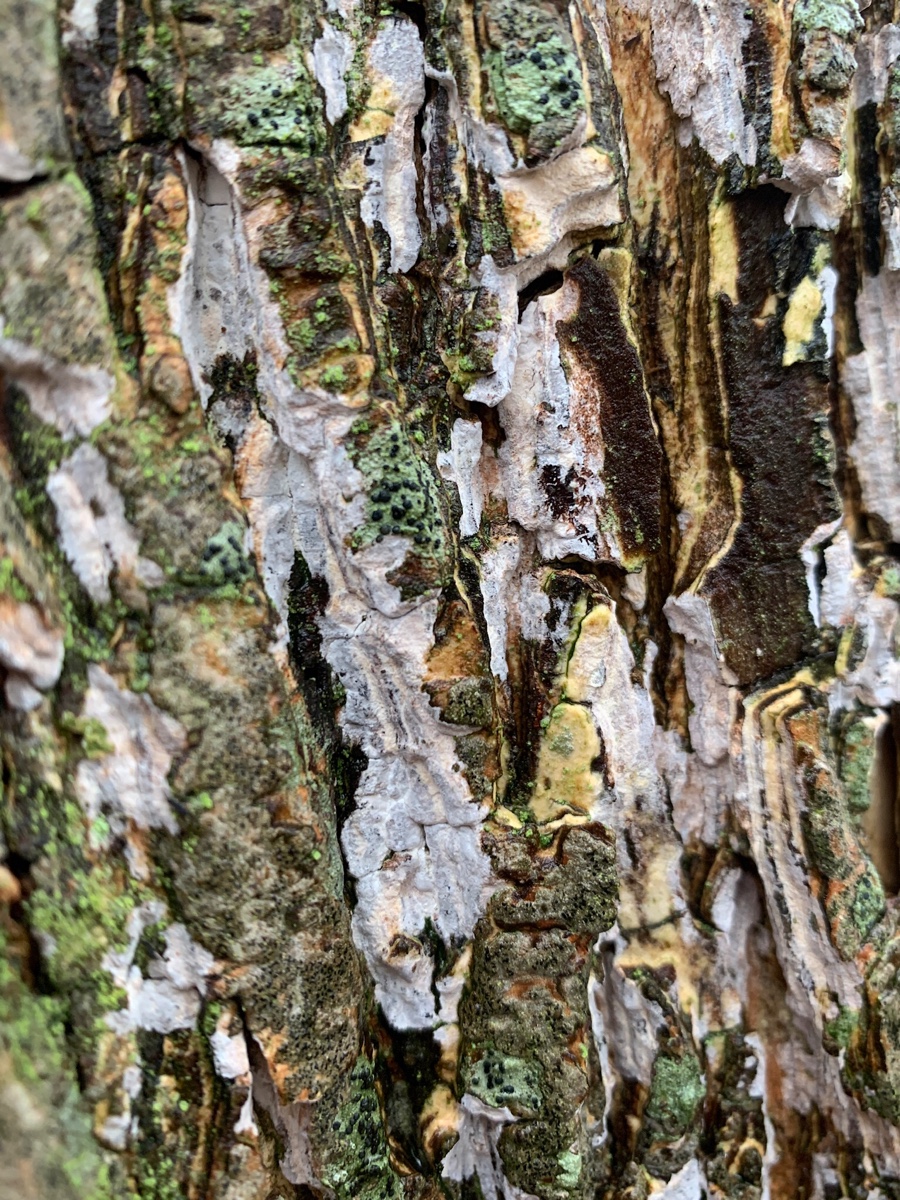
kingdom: Fungi
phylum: Basidiomycota
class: Agaricomycetes
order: Agaricales
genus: Dendrothele
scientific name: Dendrothele acerina
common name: navr-kalkplet
